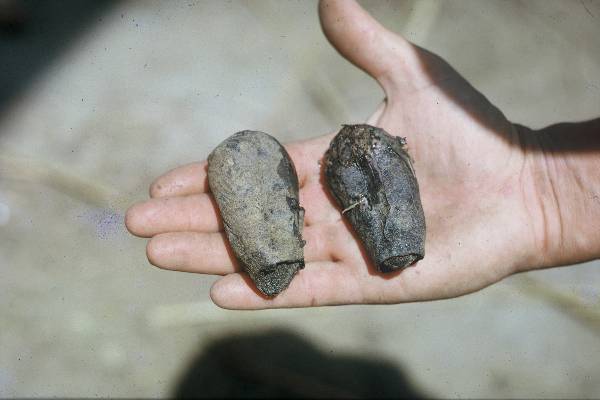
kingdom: Animalia
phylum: Chordata
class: Dipneusti
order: Ceratodontiformes
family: Protopteridae
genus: Protopterus
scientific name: Protopterus annectens
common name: Lungfish
